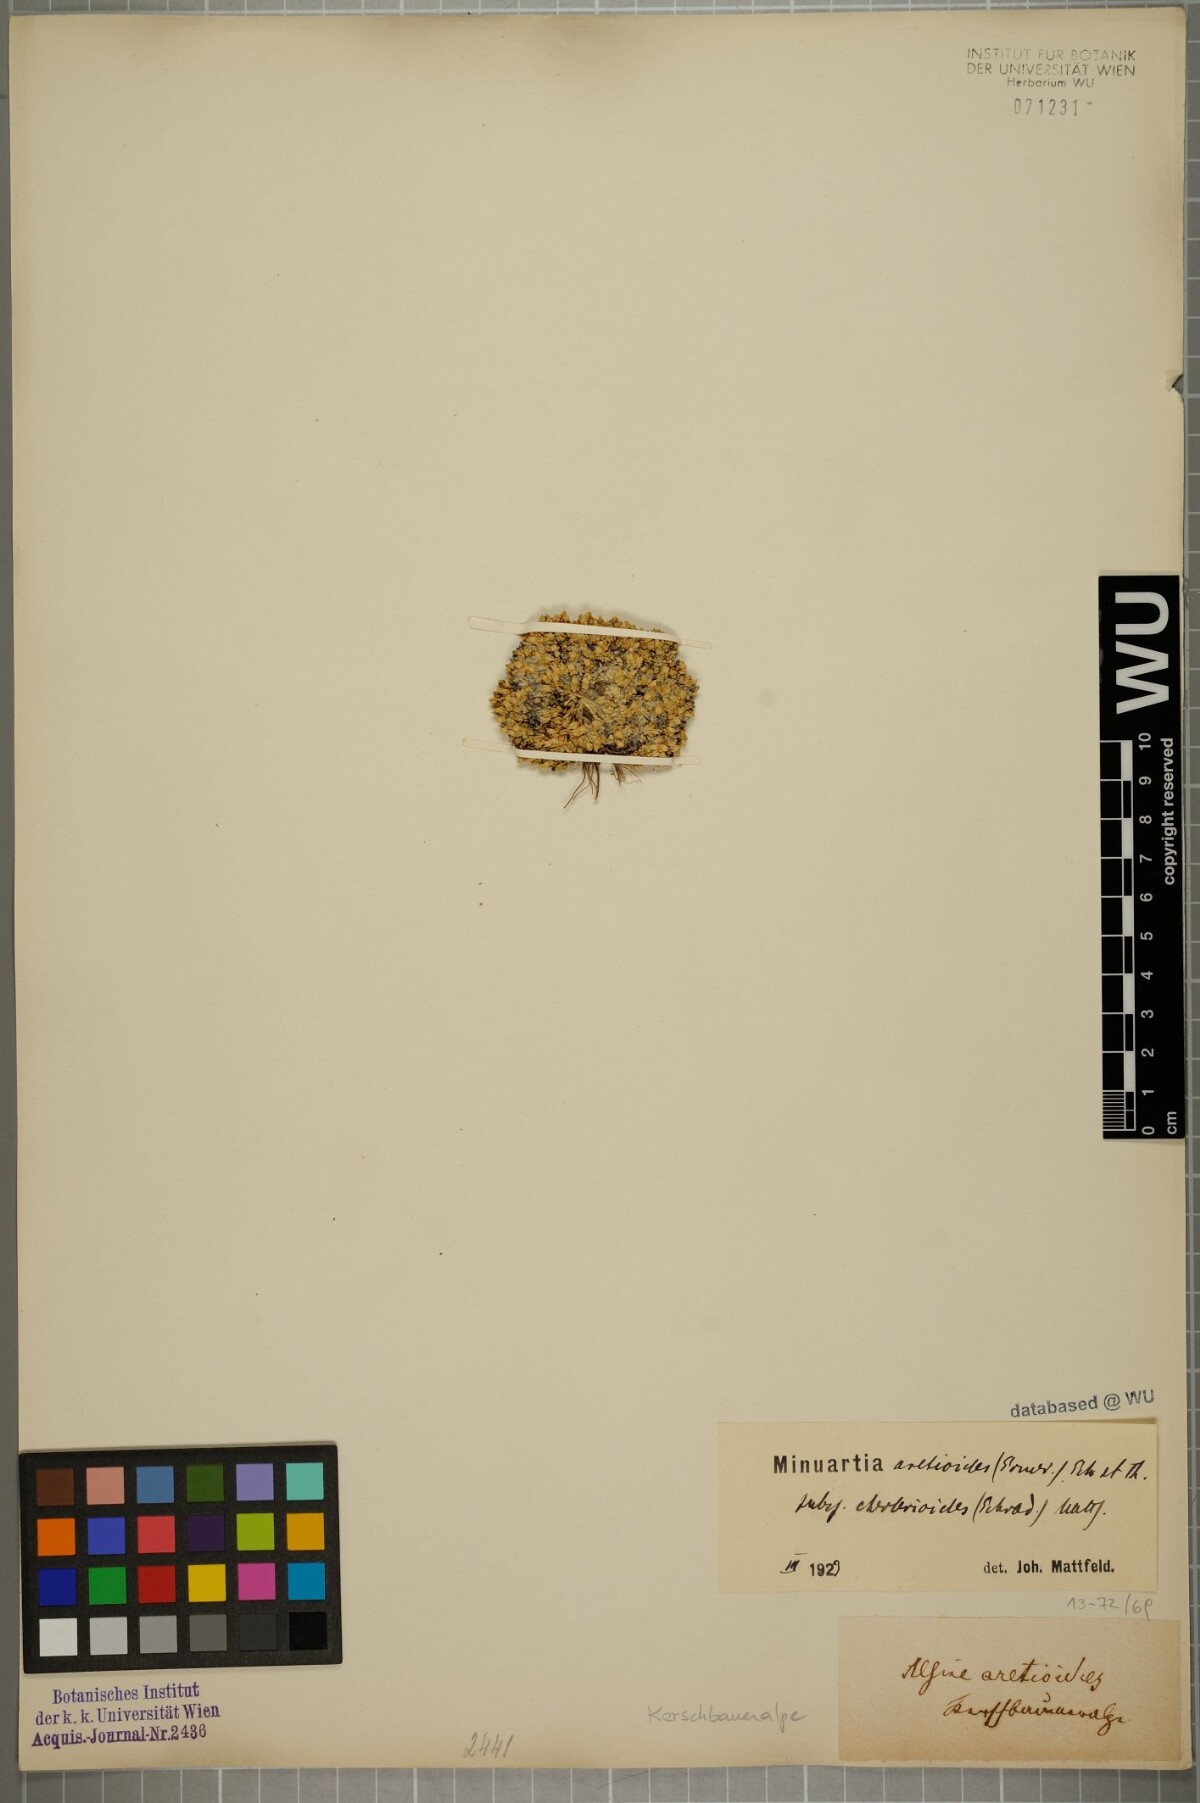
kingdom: Plantae
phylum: Tracheophyta
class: Magnoliopsida
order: Caryophyllales
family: Caryophyllaceae
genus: Facchinia
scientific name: Facchinia cherlerioides
